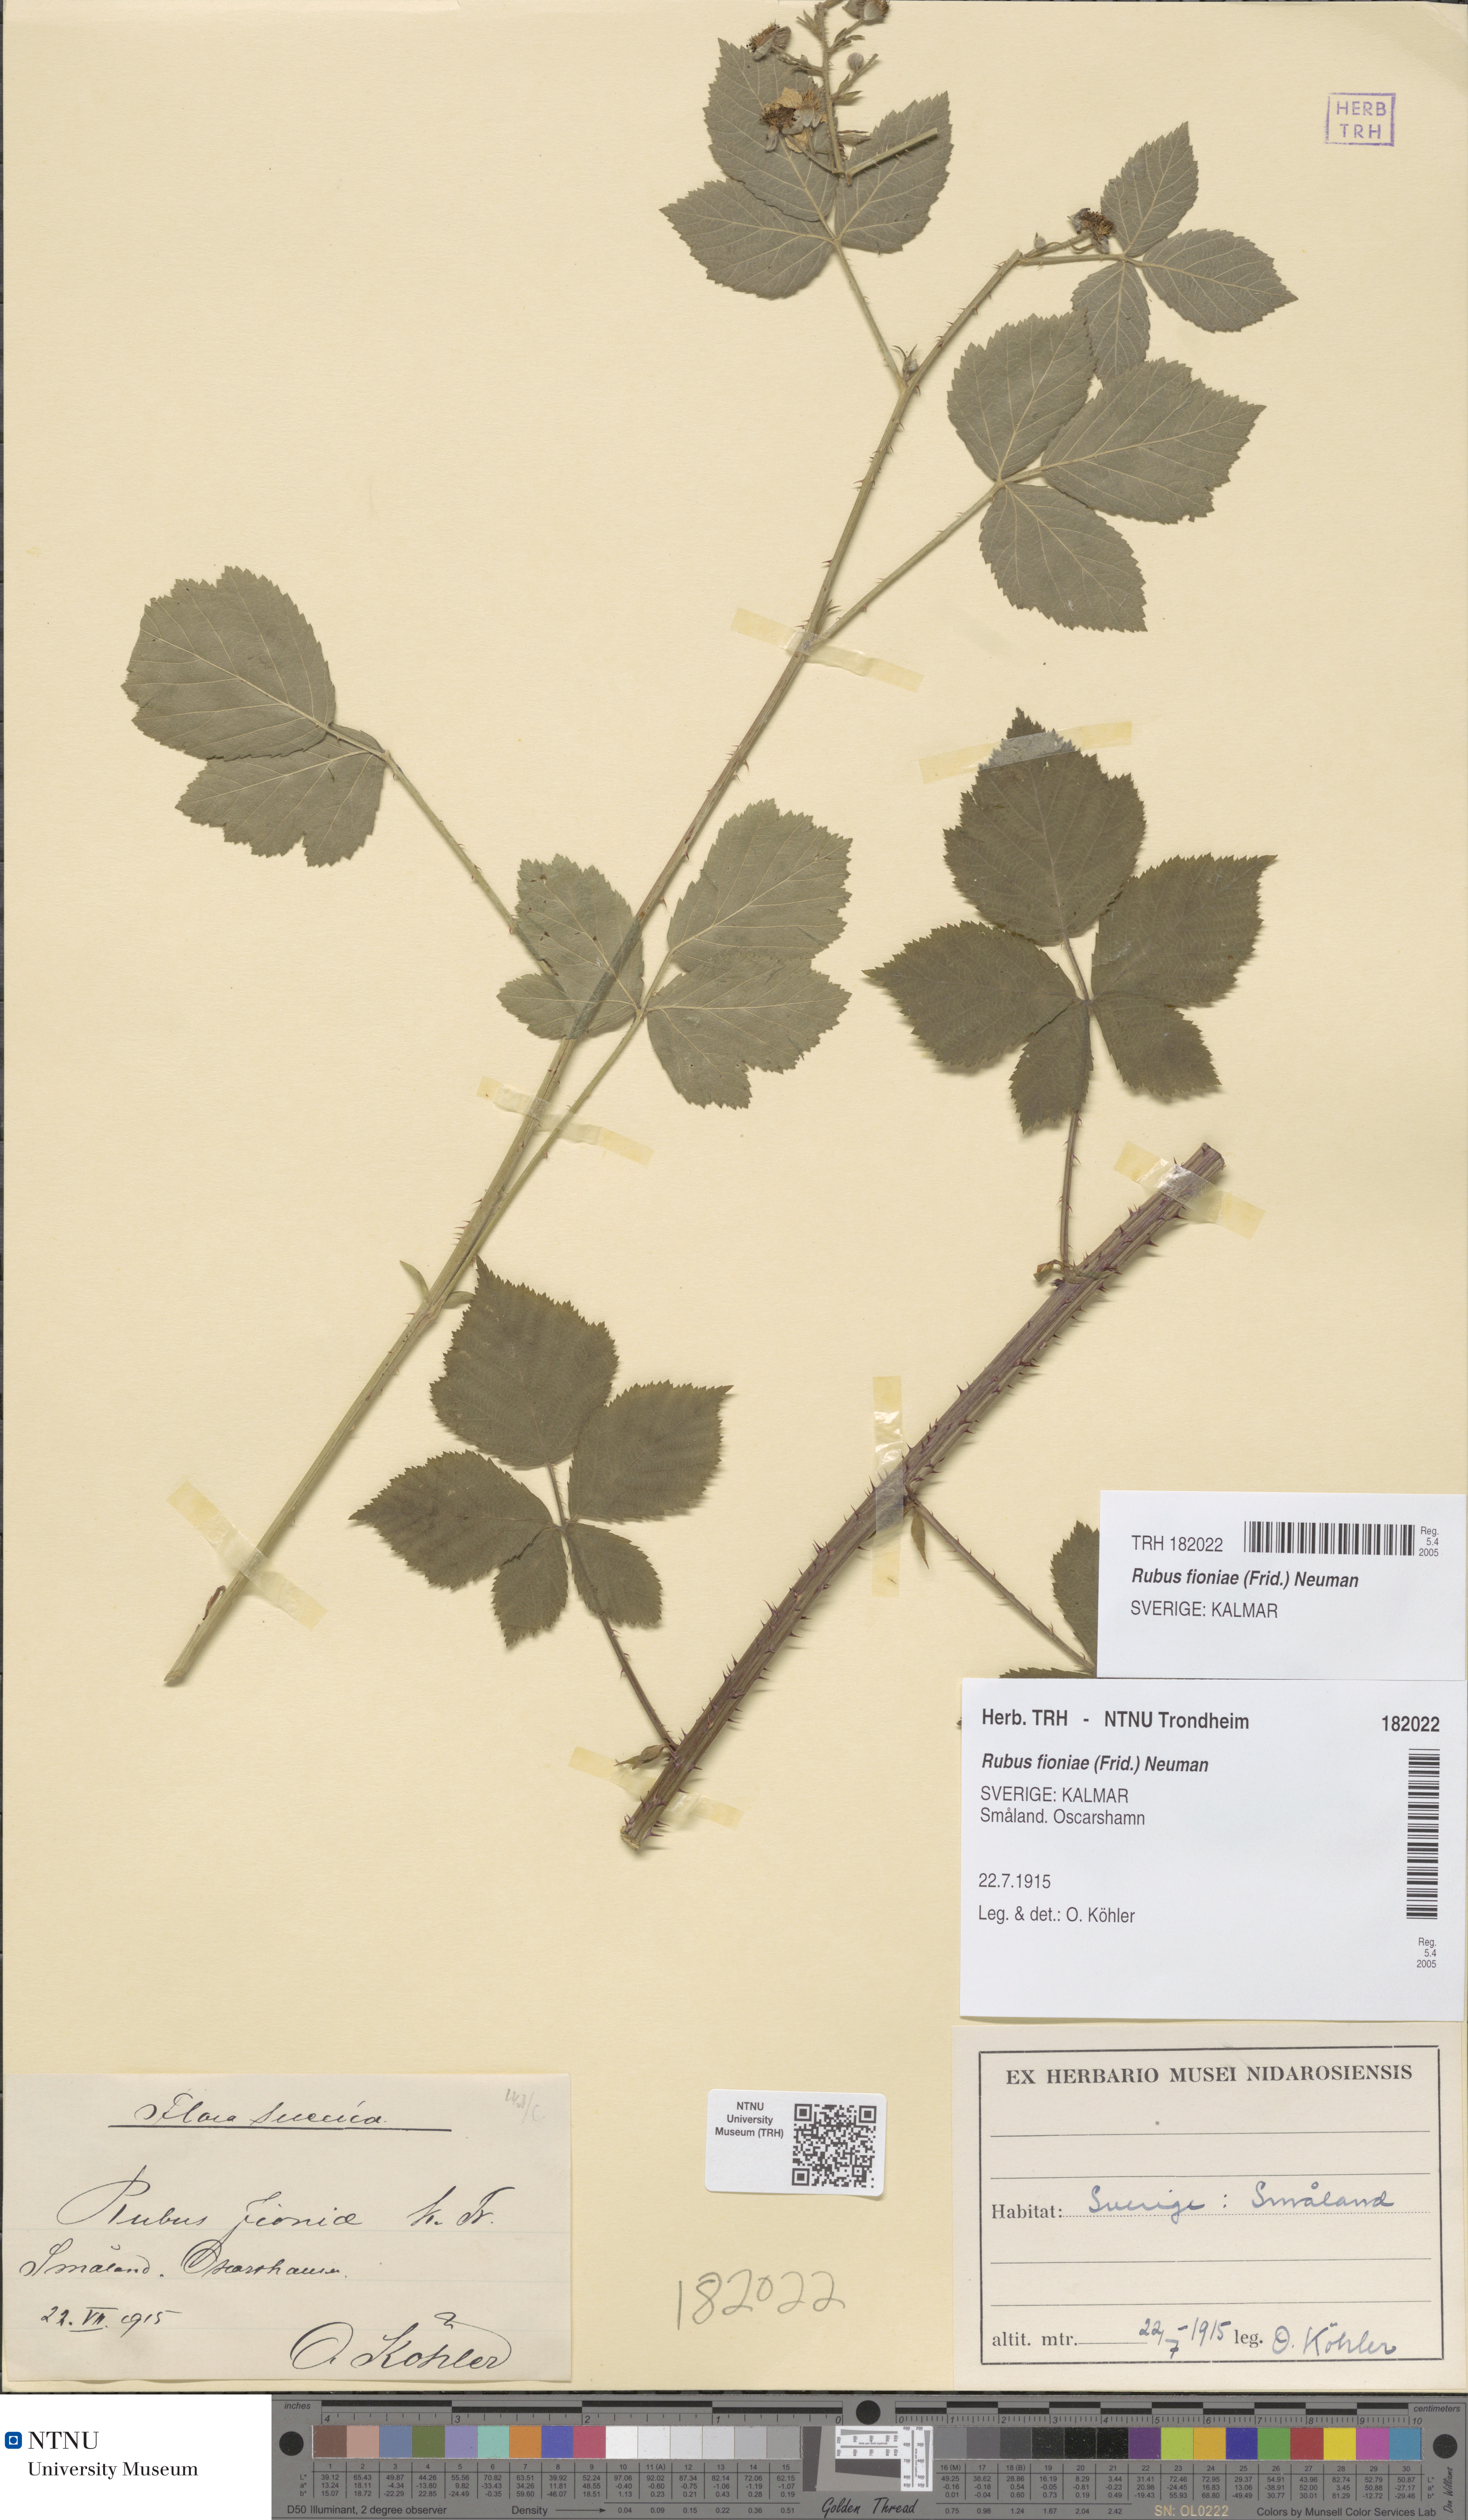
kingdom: Plantae
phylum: Tracheophyta
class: Magnoliopsida
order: Rosales
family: Rosaceae
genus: Rubus
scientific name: Rubus fioniae
